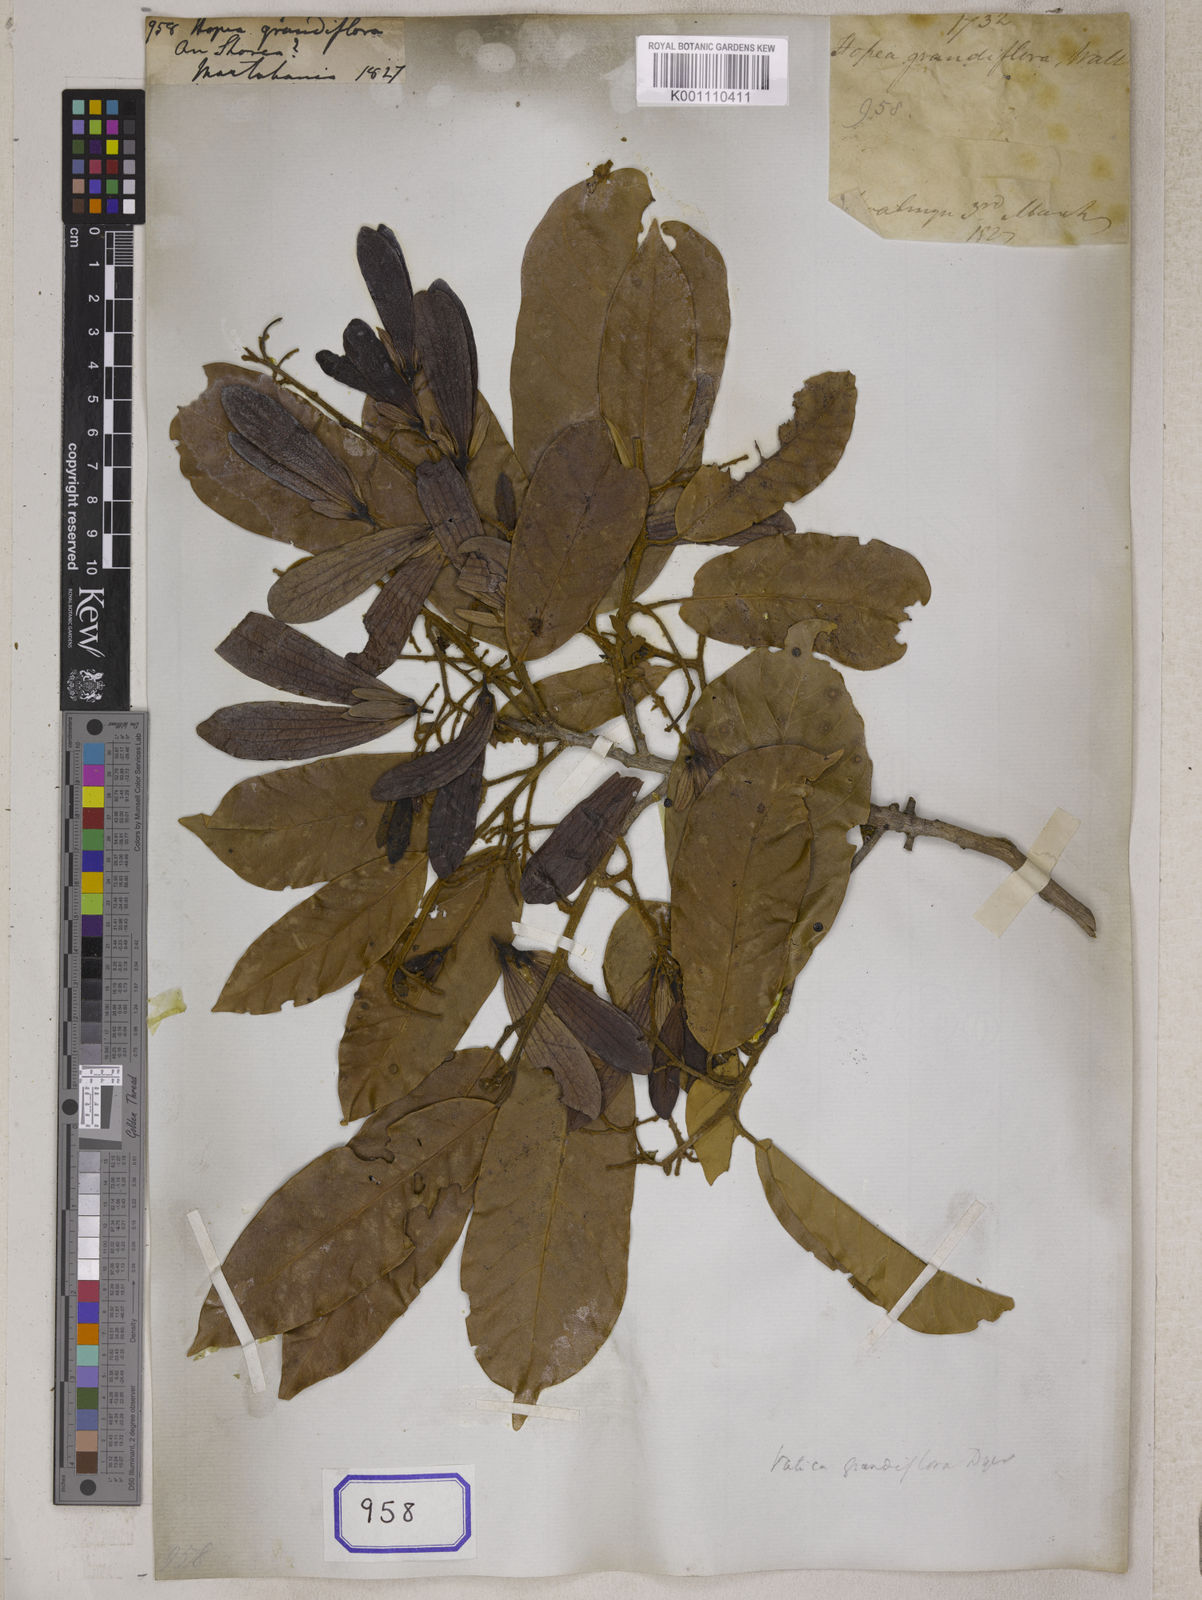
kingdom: Plantae
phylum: Tracheophyta
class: Magnoliopsida
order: Malvales
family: Dipterocarpaceae
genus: Hopea
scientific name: Hopea
